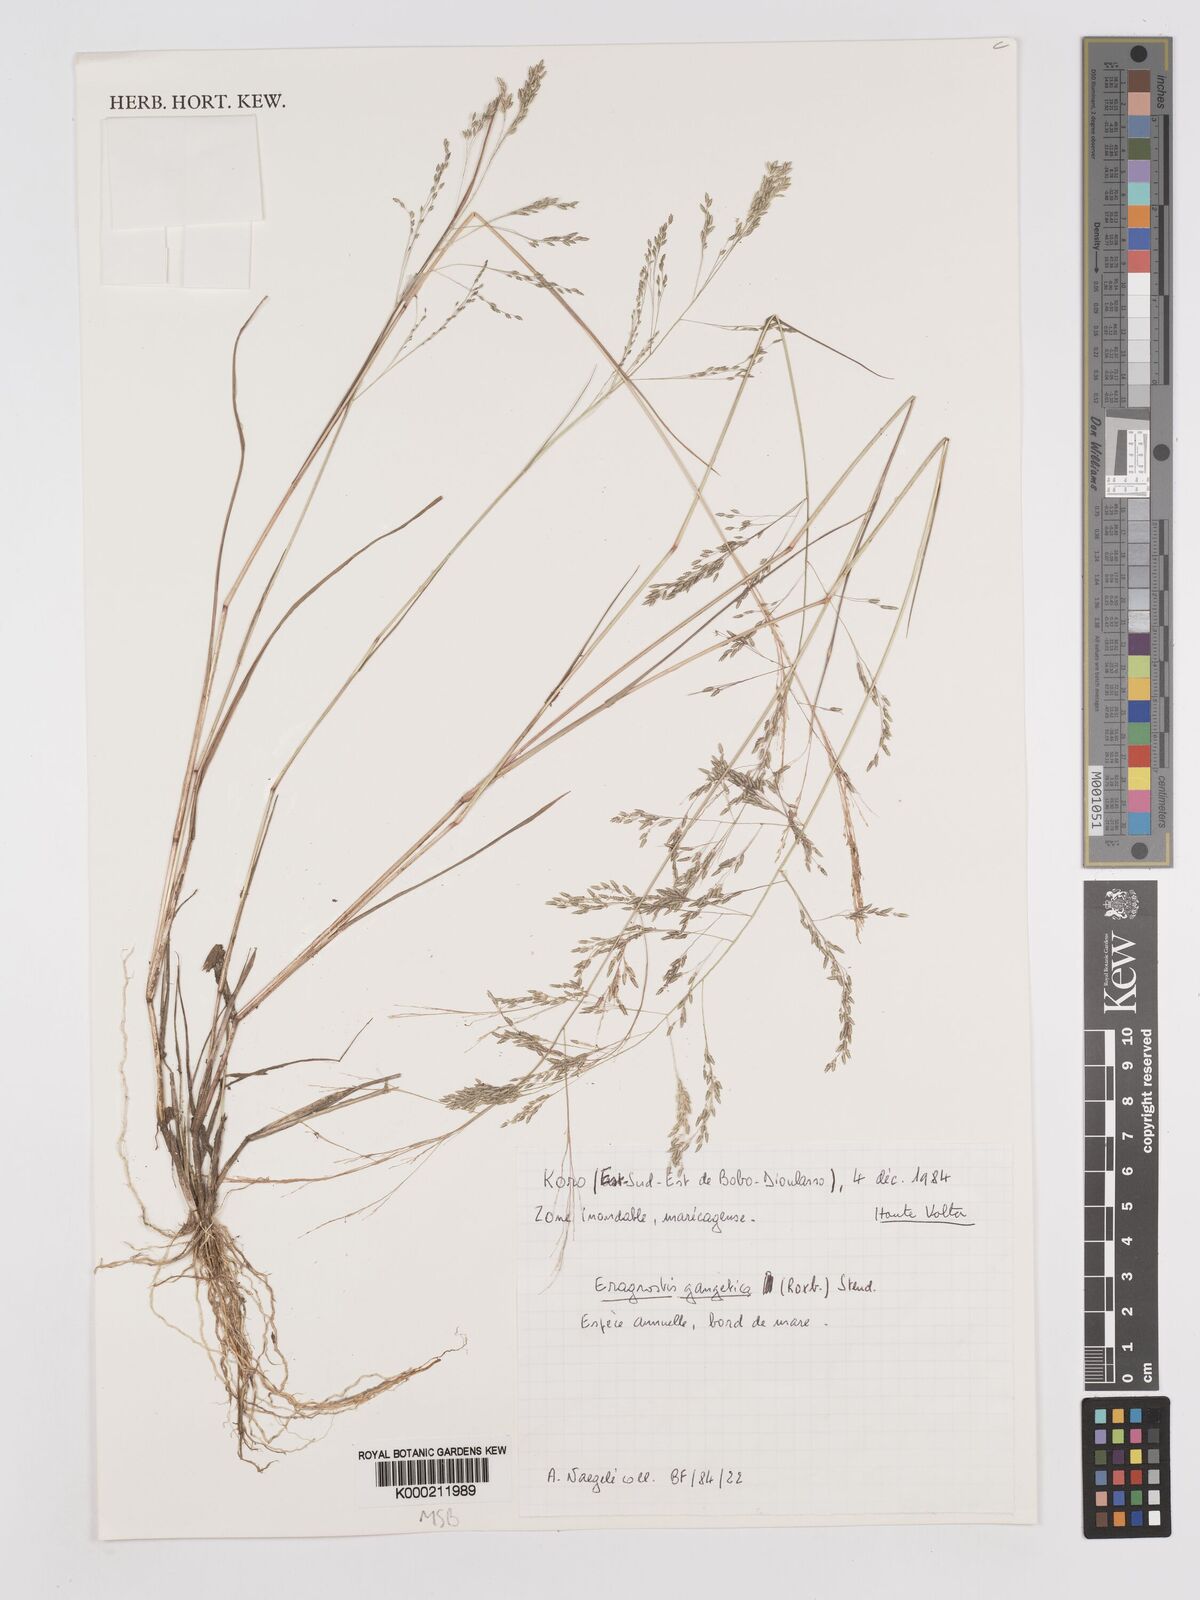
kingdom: Plantae
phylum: Tracheophyta
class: Liliopsida
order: Poales
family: Poaceae
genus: Eragrostis
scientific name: Eragrostis gangetica
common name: Slimflower lovegrass
